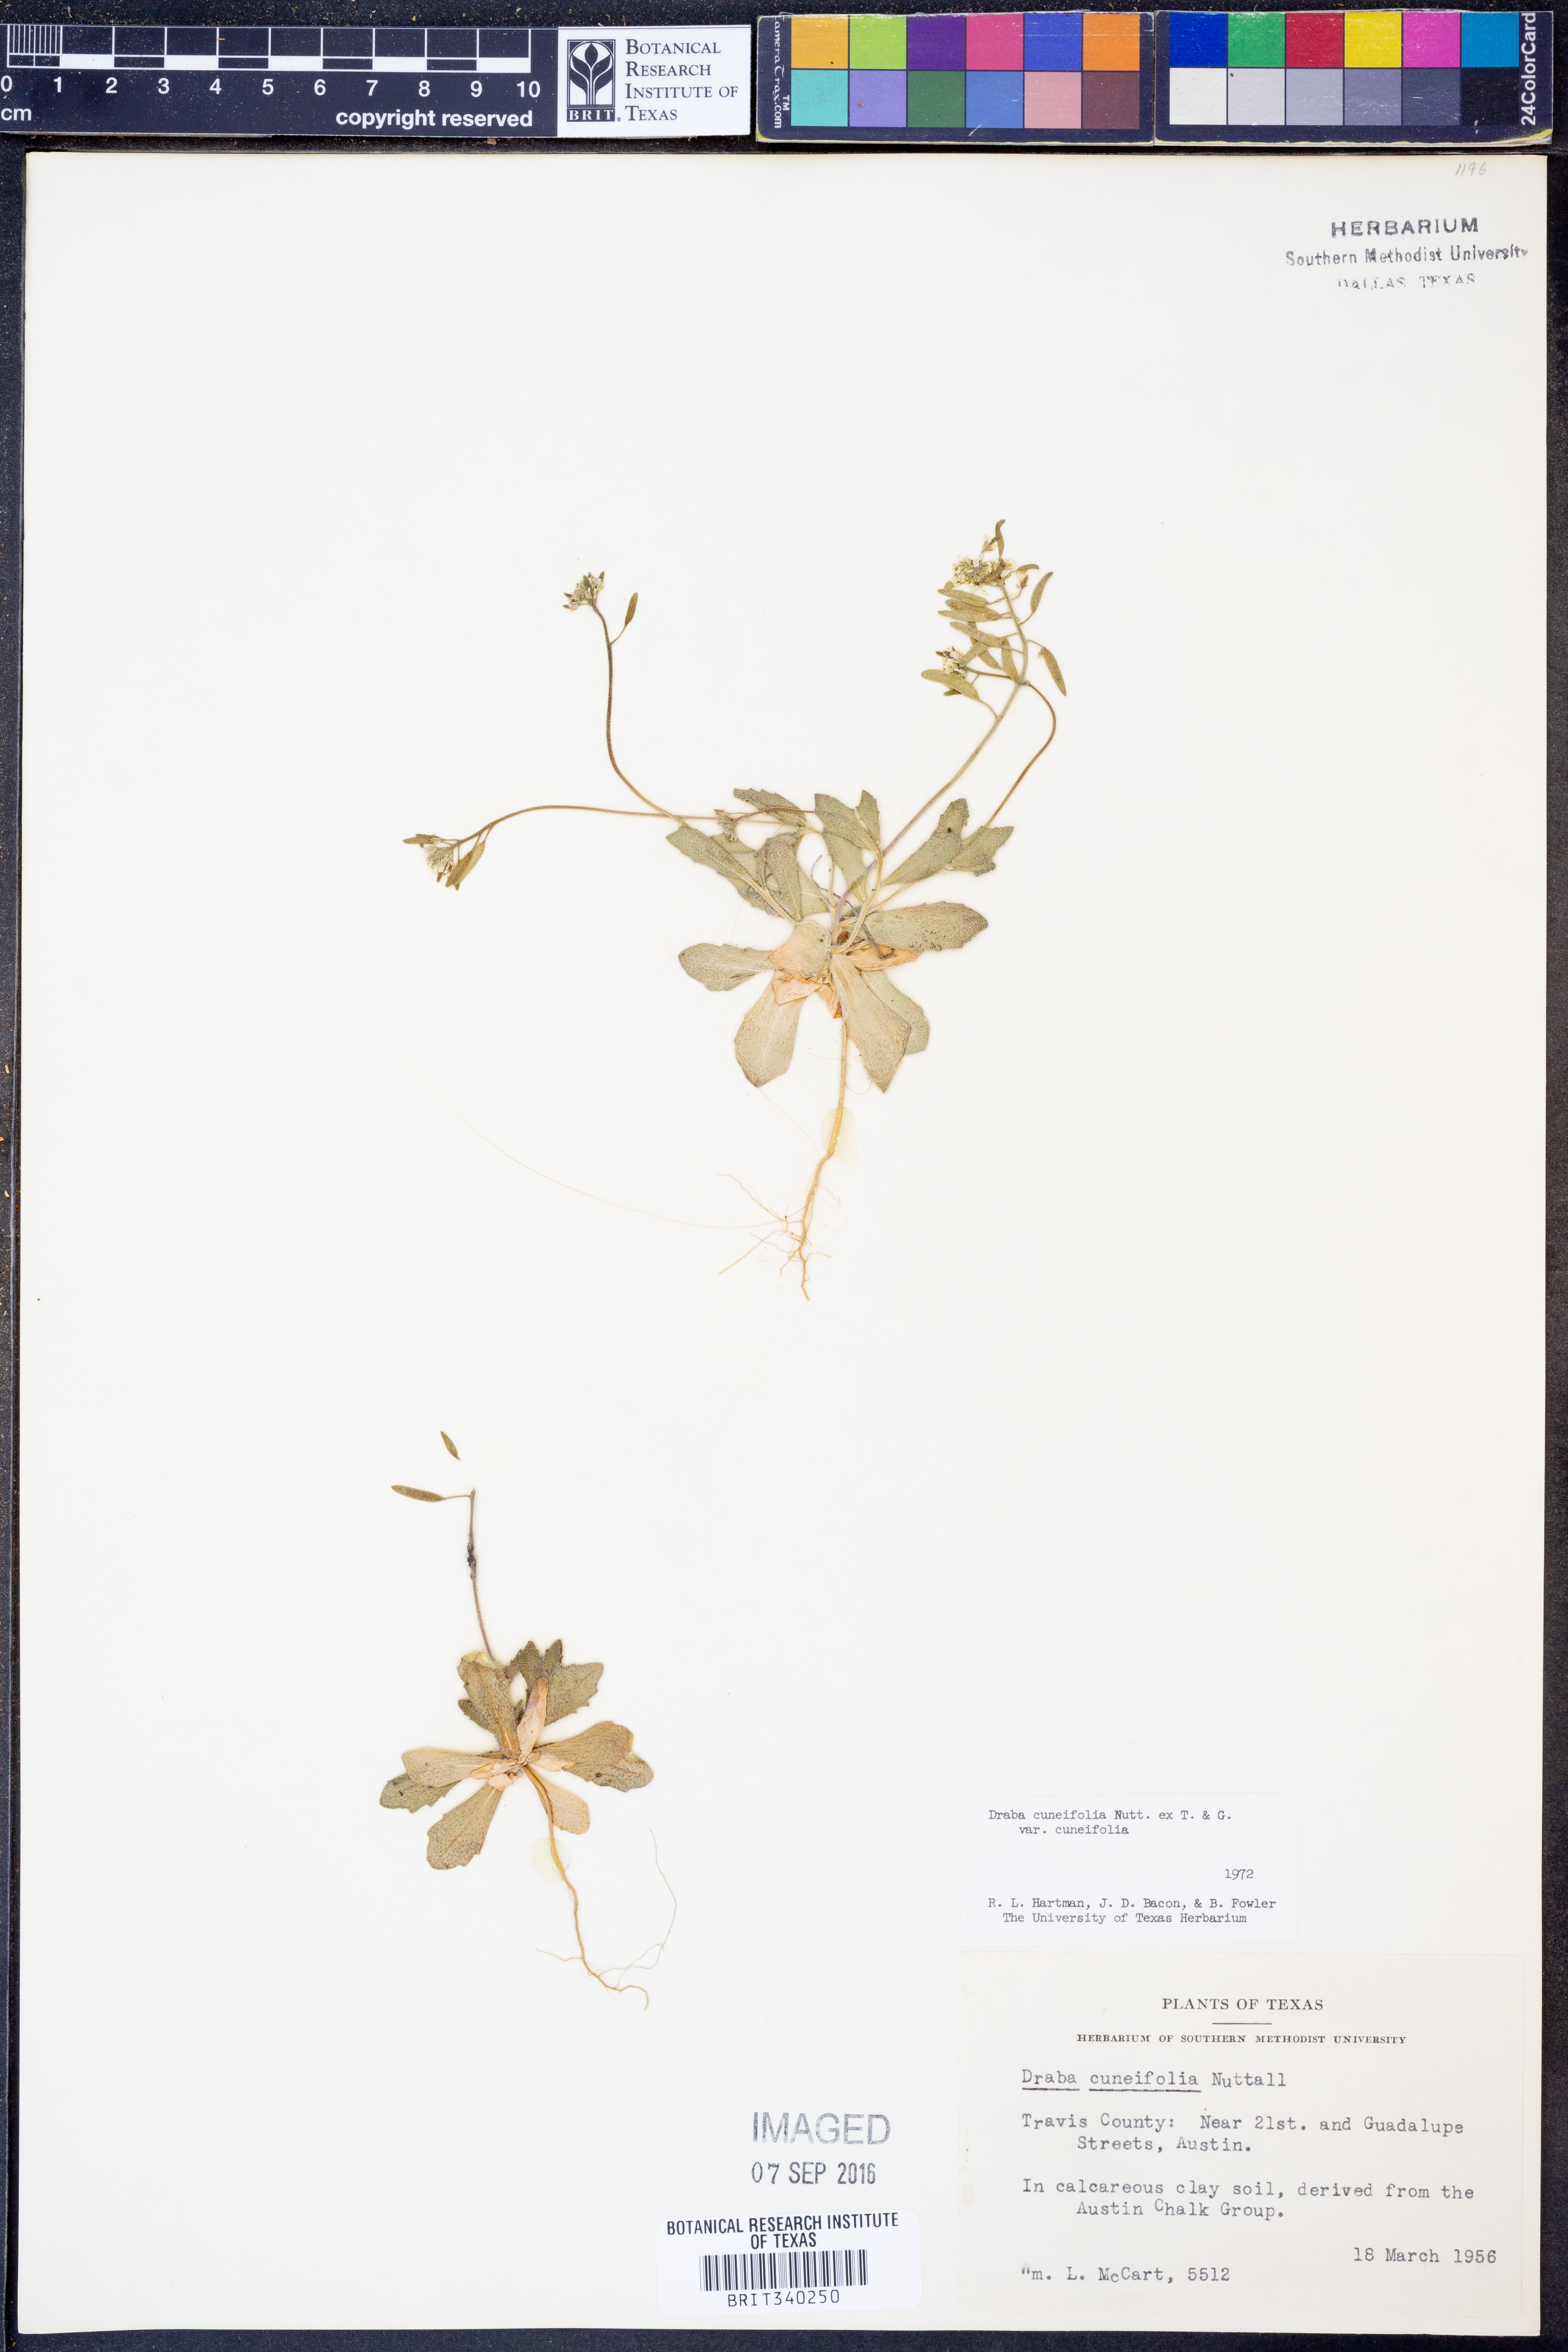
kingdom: Plantae
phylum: Tracheophyta
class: Magnoliopsida
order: Brassicales
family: Brassicaceae
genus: Tomostima
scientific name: Tomostima cuneifolia
